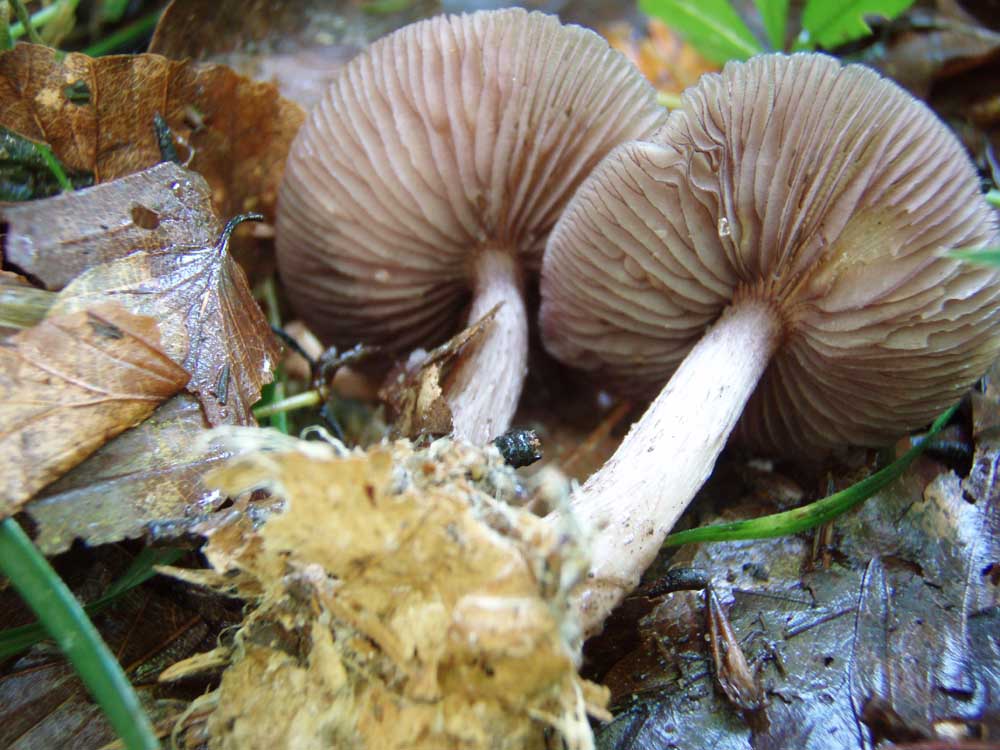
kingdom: Fungi
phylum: Basidiomycota
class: Agaricomycetes
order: Agaricales
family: Mycenaceae
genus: Mycena
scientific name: Mycena pelianthina
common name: mørkbladet huesvamp
